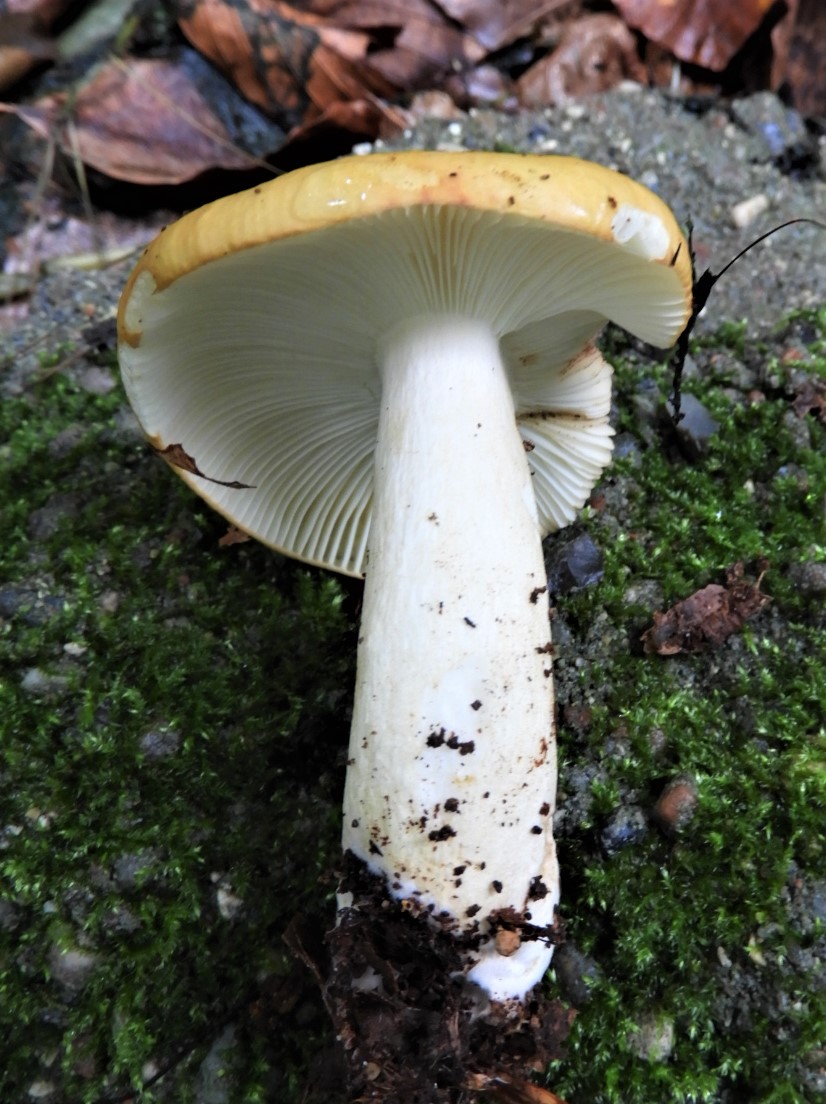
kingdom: Fungi
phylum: Basidiomycota
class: Agaricomycetes
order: Russulales
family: Russulaceae
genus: Russula
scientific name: Russula ochroleuca
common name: okkergul skørhat
